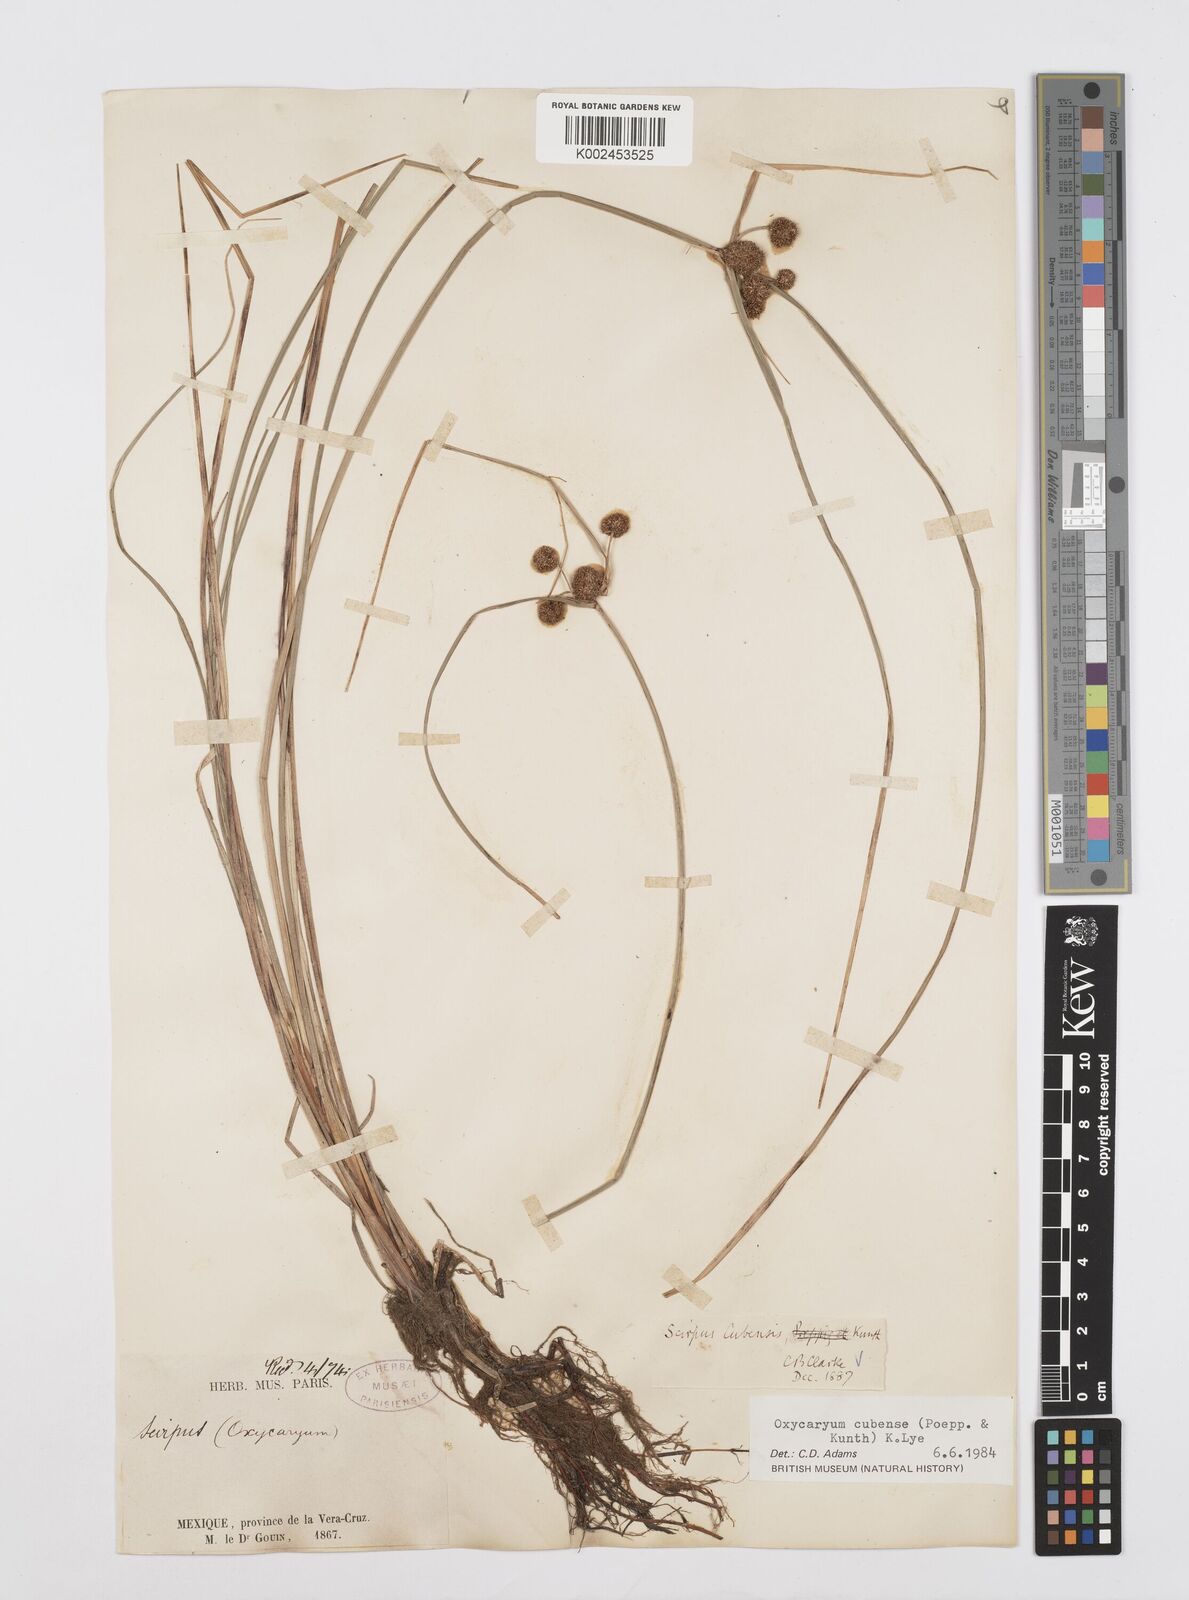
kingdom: Plantae
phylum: Tracheophyta
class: Liliopsida
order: Poales
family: Cyperaceae
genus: Cyperus
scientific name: Cyperus elegans
